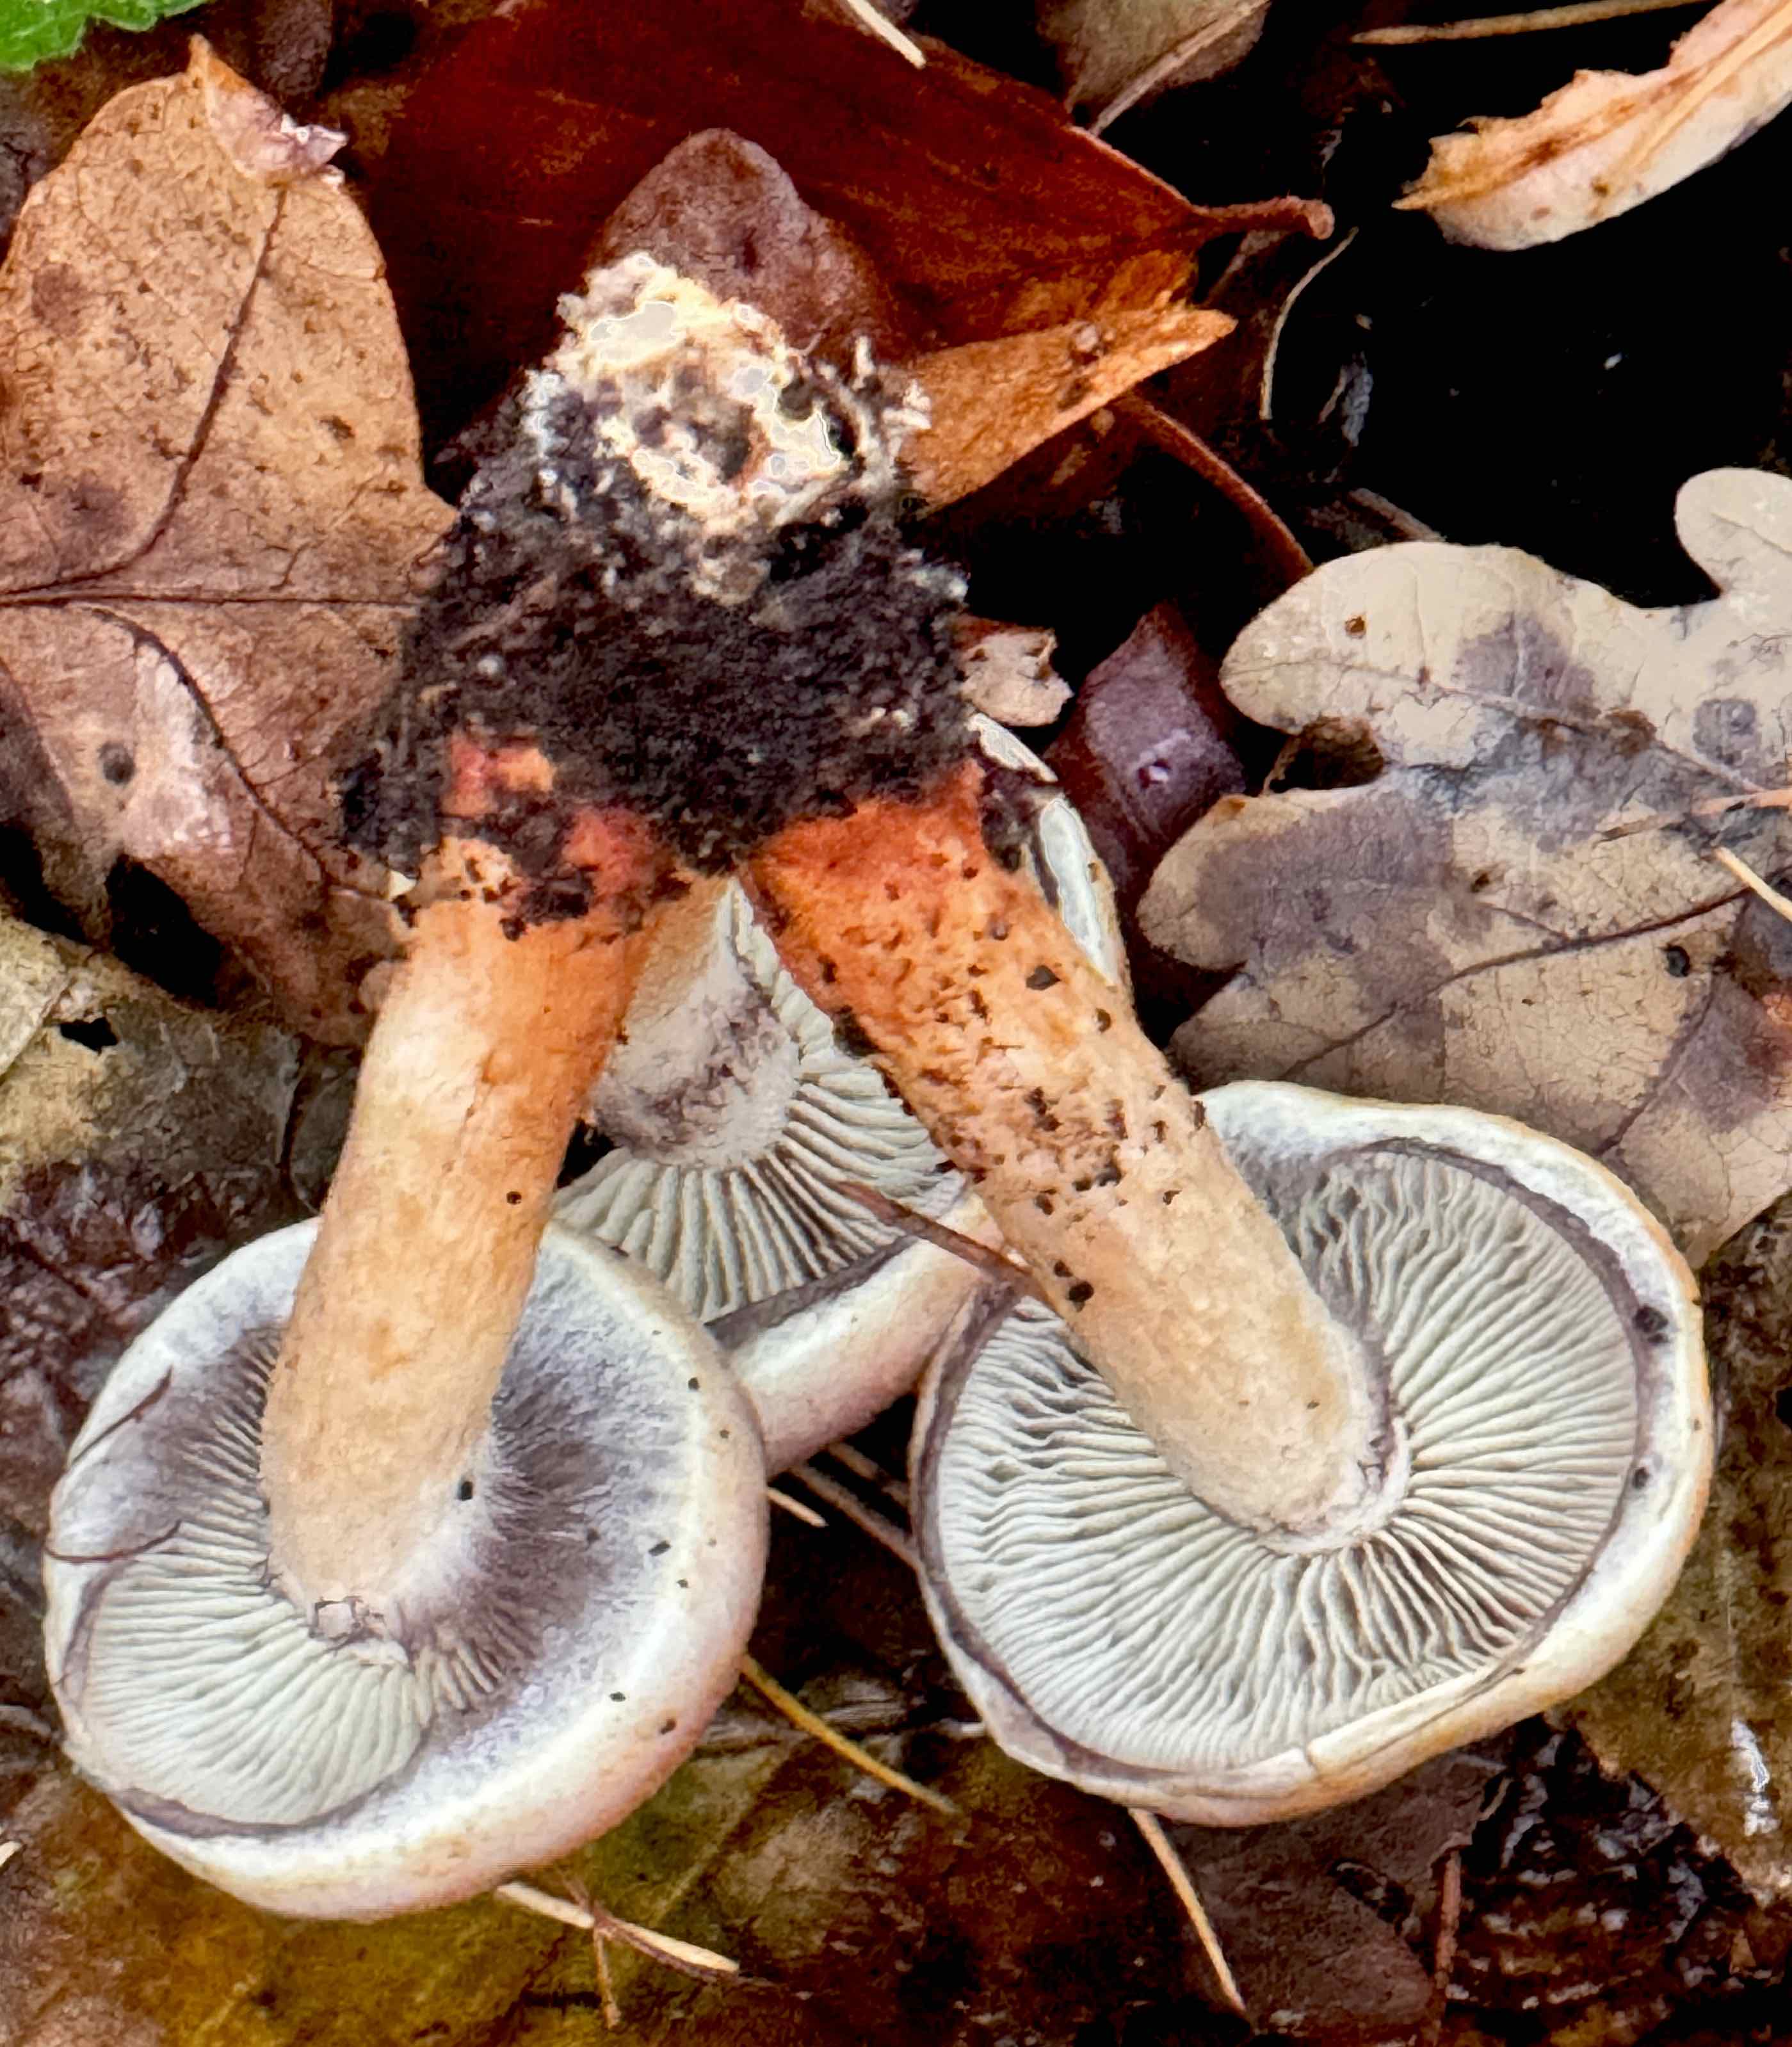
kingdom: Fungi
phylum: Basidiomycota
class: Agaricomycetes
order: Agaricales
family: Strophariaceae
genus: Hypholoma
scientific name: Hypholoma lateritium
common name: teglrød svovlhat
